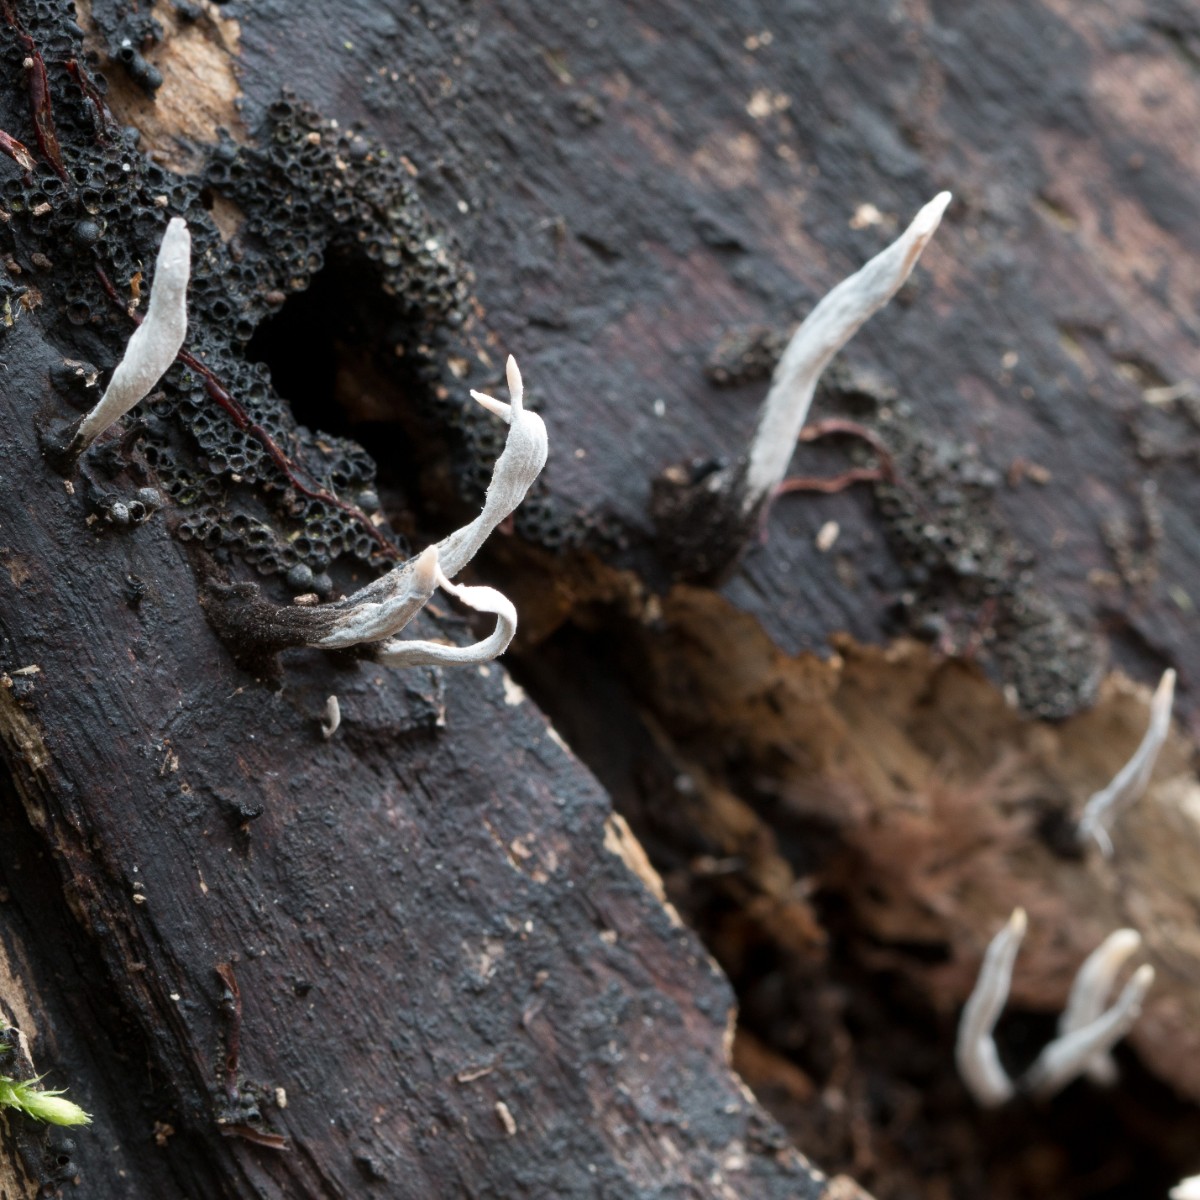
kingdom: Fungi
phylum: Ascomycota
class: Sordariomycetes
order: Xylariales
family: Xylariaceae
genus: Xylaria
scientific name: Xylaria hypoxylon
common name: grenet stødsvamp
